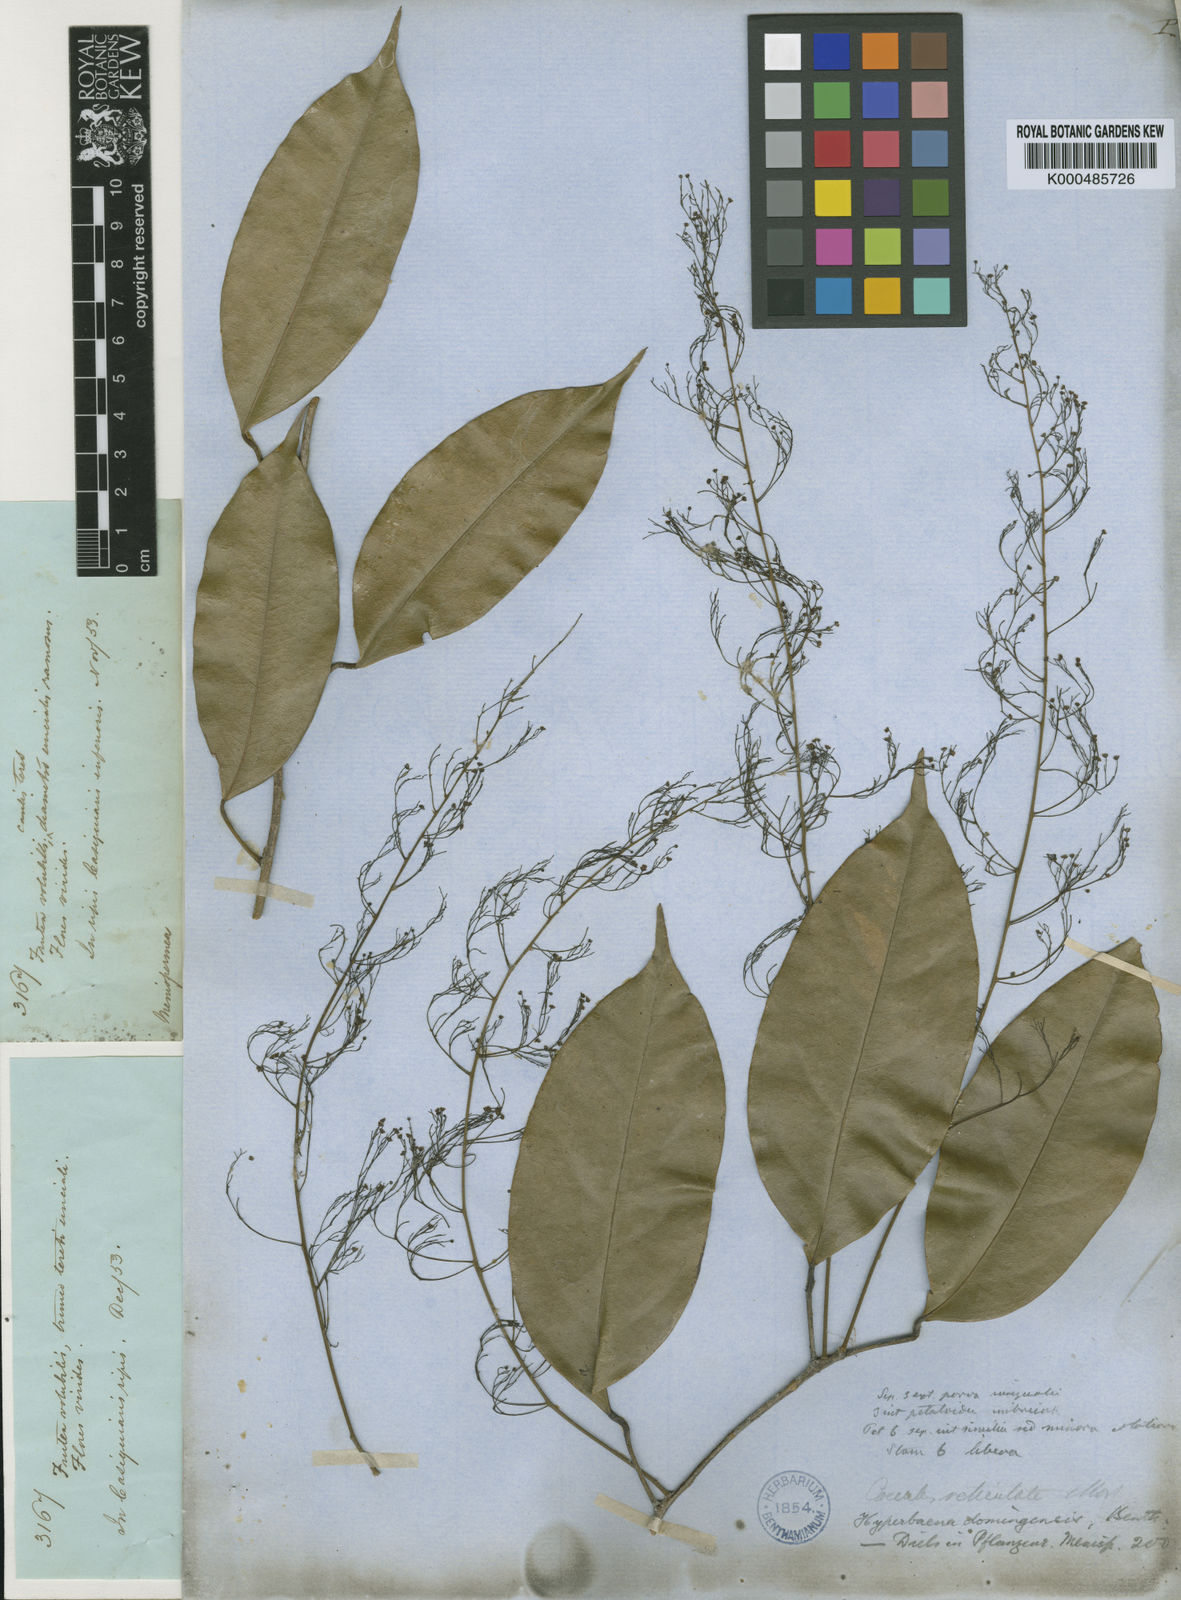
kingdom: Plantae
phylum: Tracheophyta
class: Magnoliopsida
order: Ranunculales
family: Menispermaceae
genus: Hyperbaena
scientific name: Hyperbaena domingensis
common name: Forest snakevine
